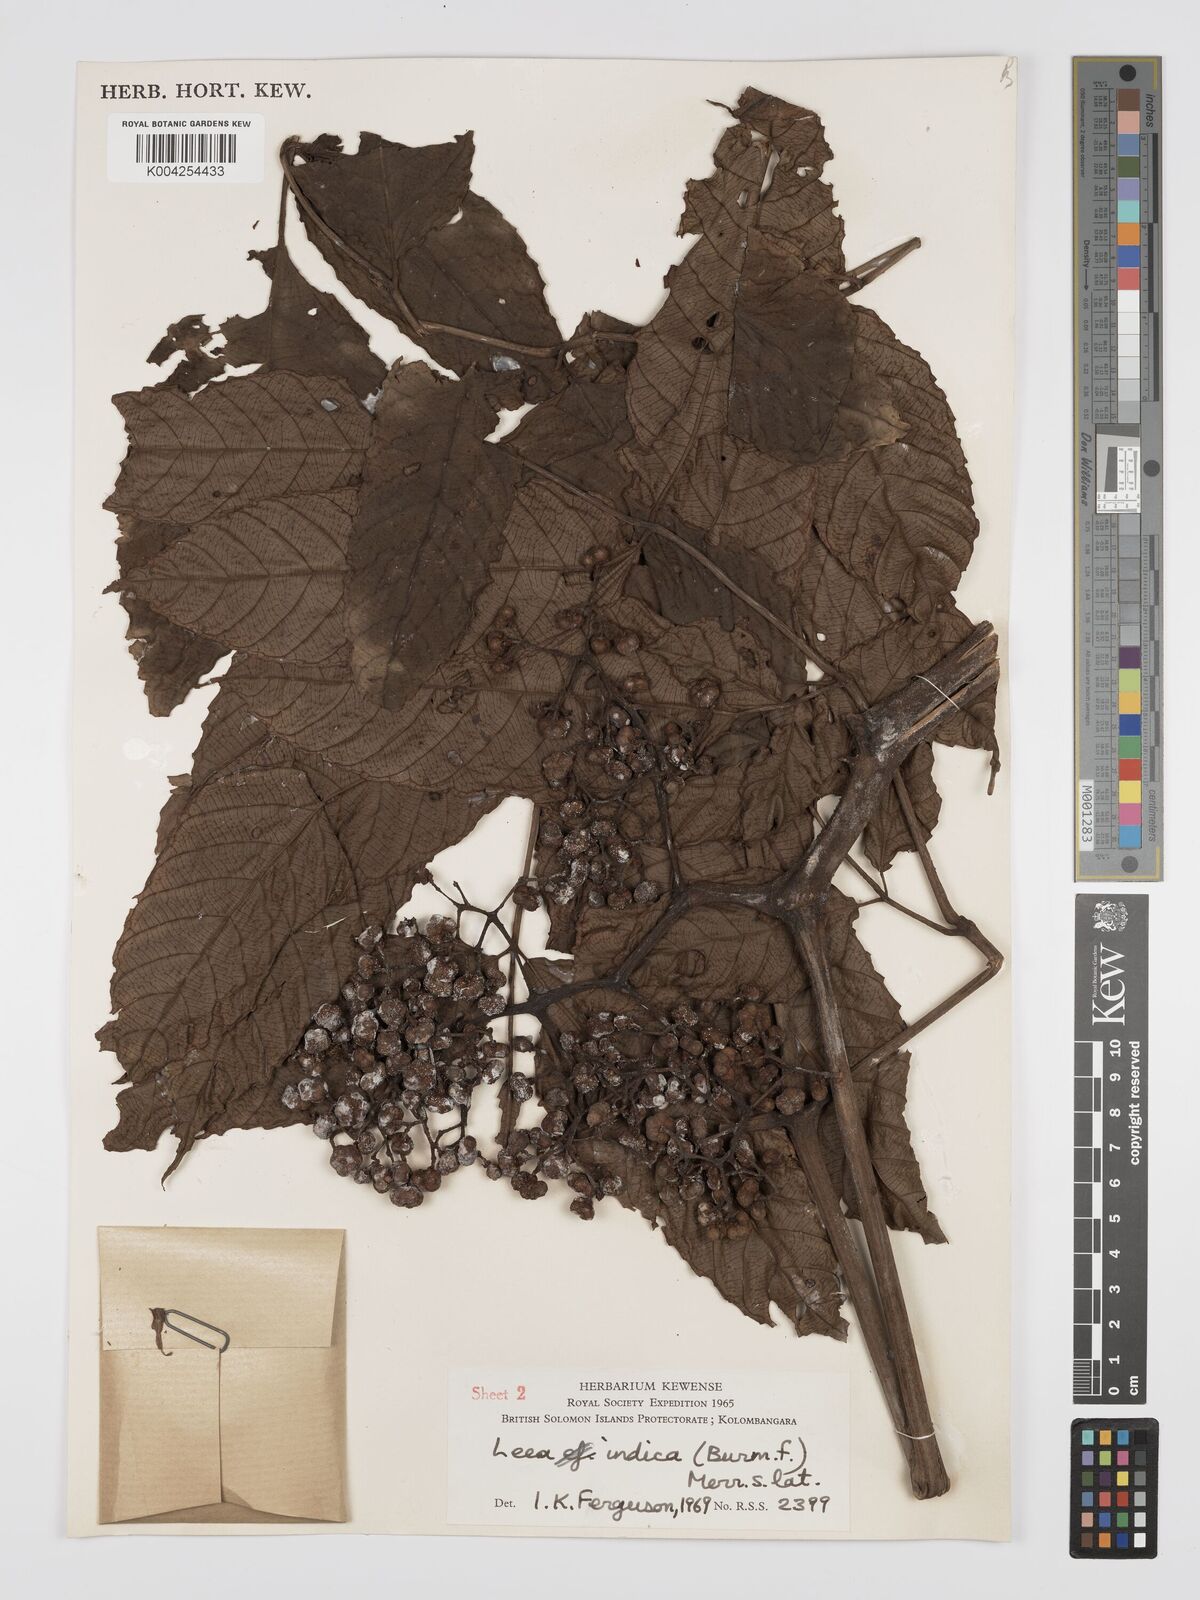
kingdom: Plantae
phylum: Tracheophyta
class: Magnoliopsida
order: Vitales
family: Vitaceae
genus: Leea
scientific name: Leea tetramera
